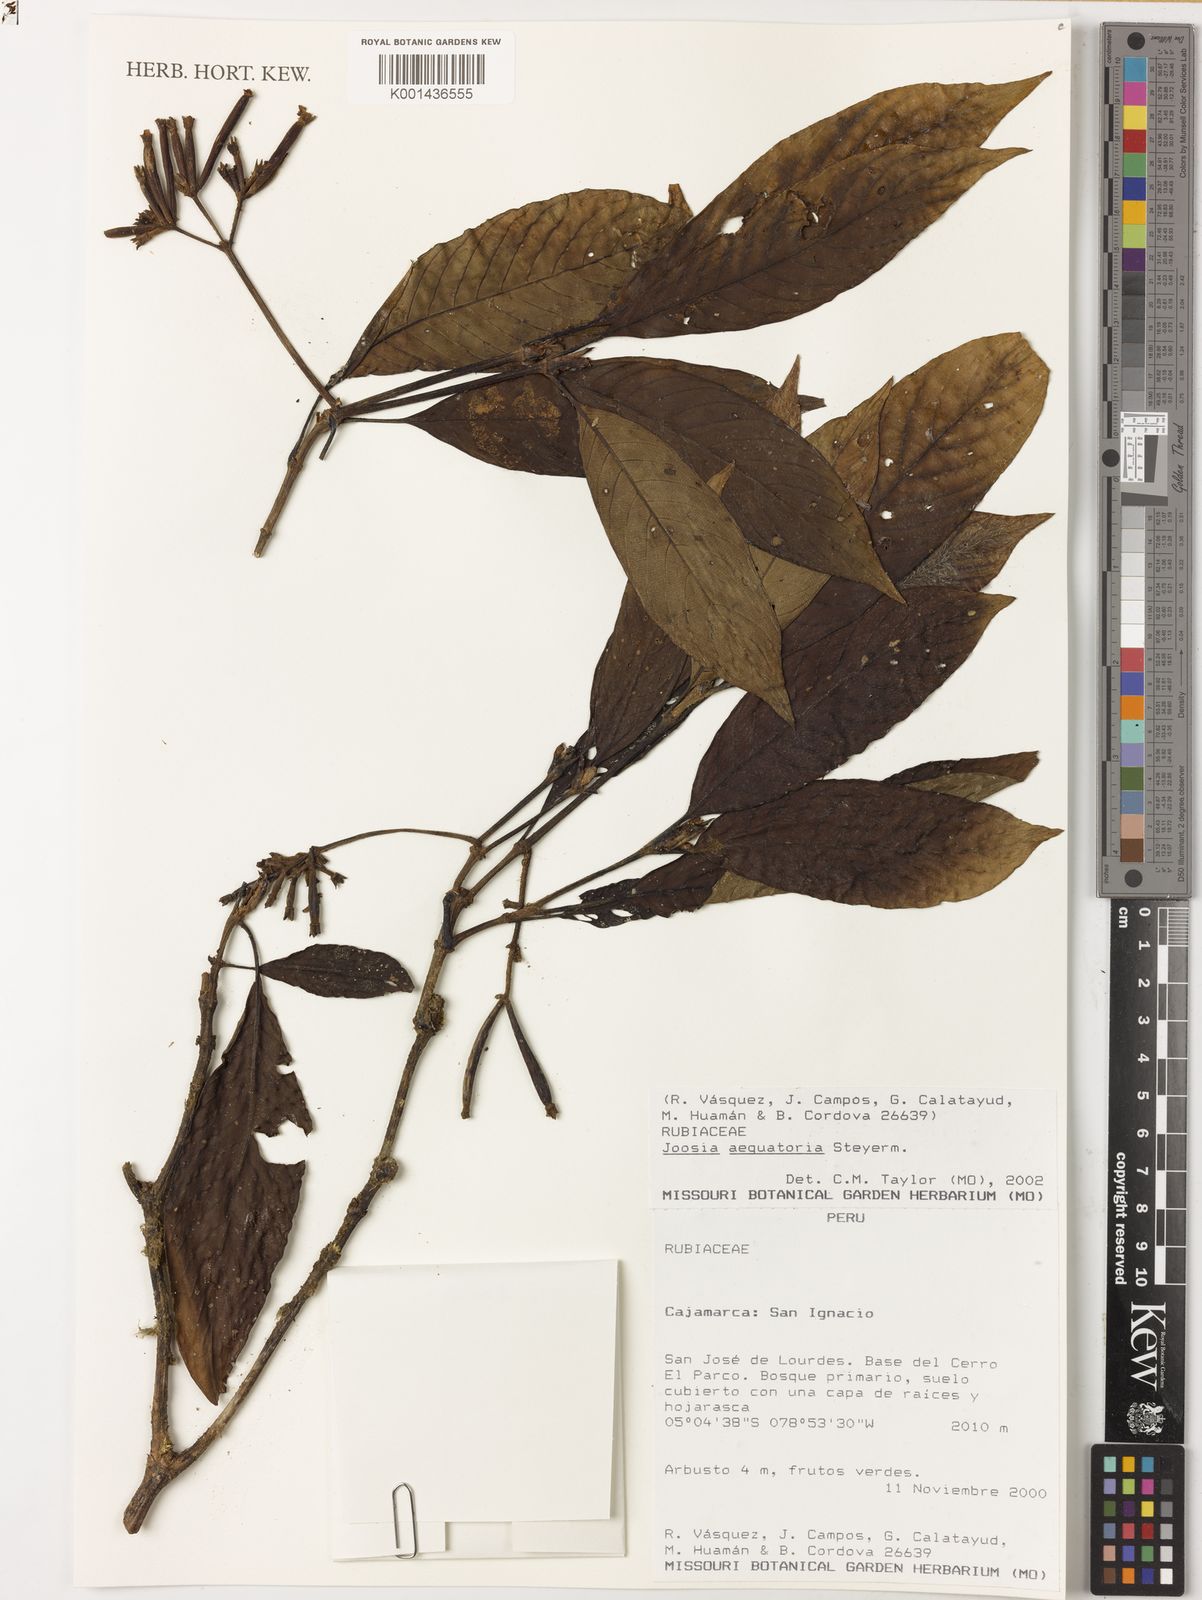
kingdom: Plantae
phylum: Tracheophyta
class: Magnoliopsida
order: Gentianales
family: Rubiaceae
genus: Joosia
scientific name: Joosia aequatoria
